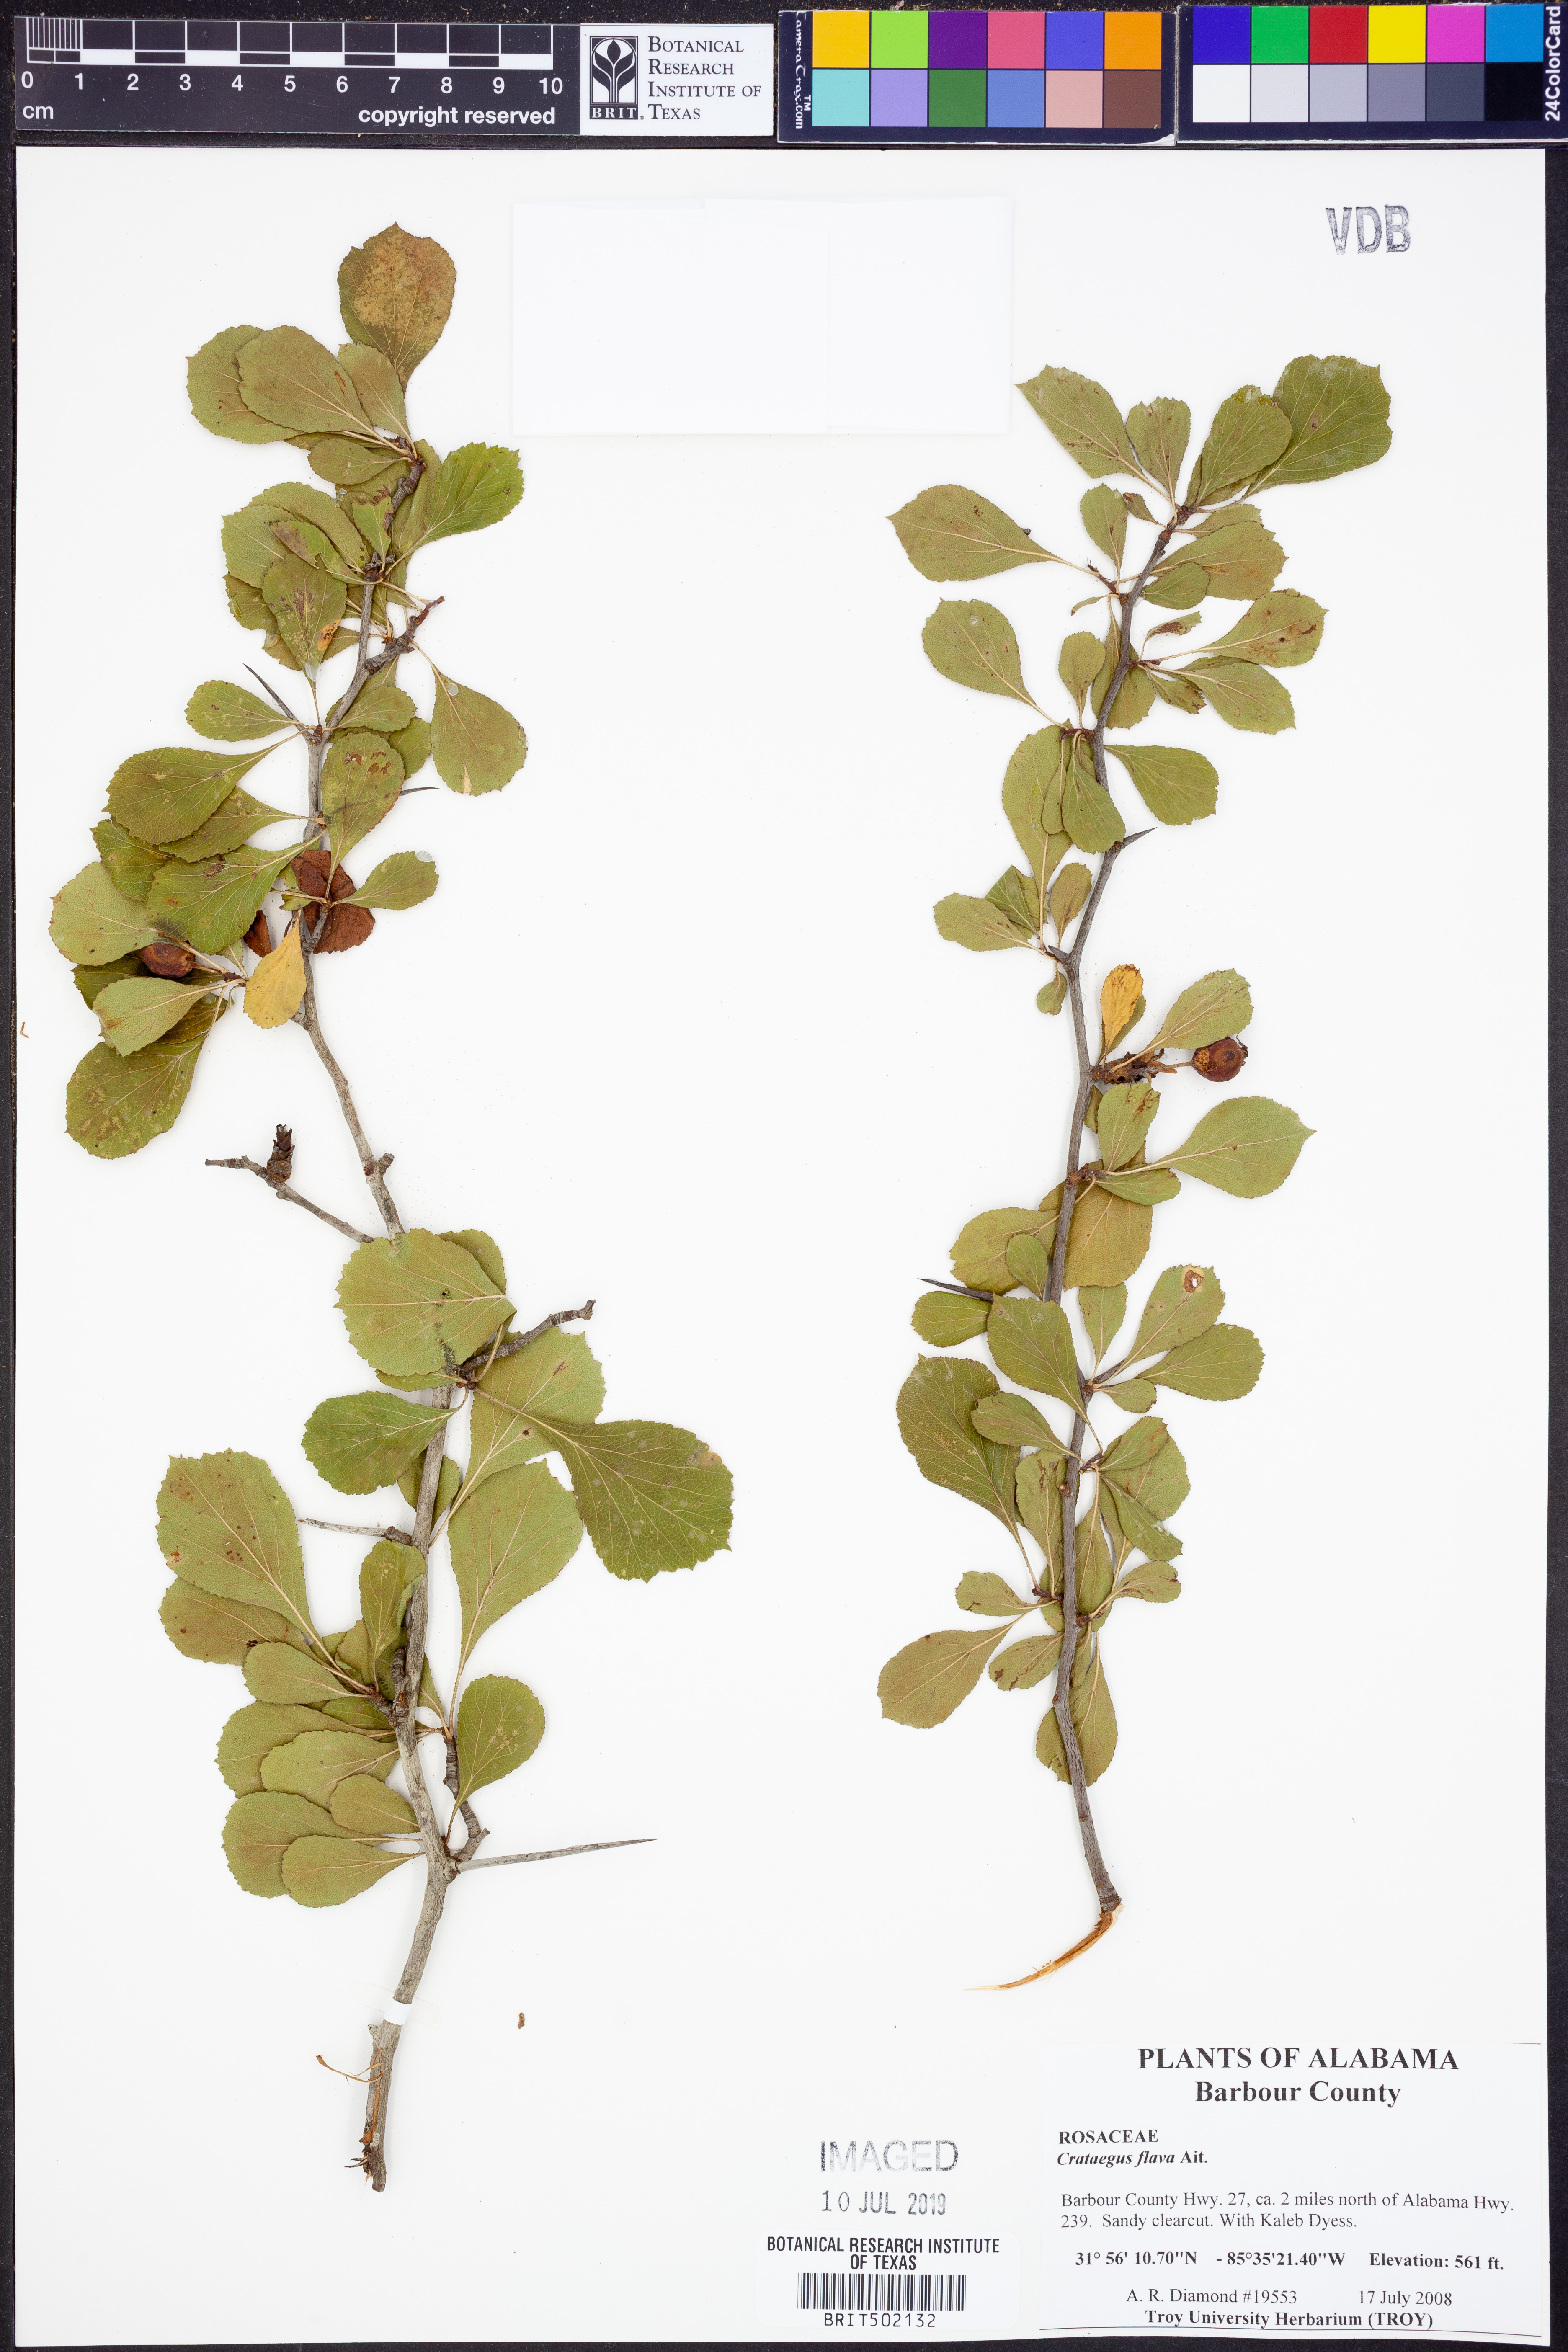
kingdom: Plantae
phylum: Tracheophyta
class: Magnoliopsida
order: Rosales
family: Rosaceae
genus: Crataegus
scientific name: Crataegus flava
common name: Yellow hawthorn
